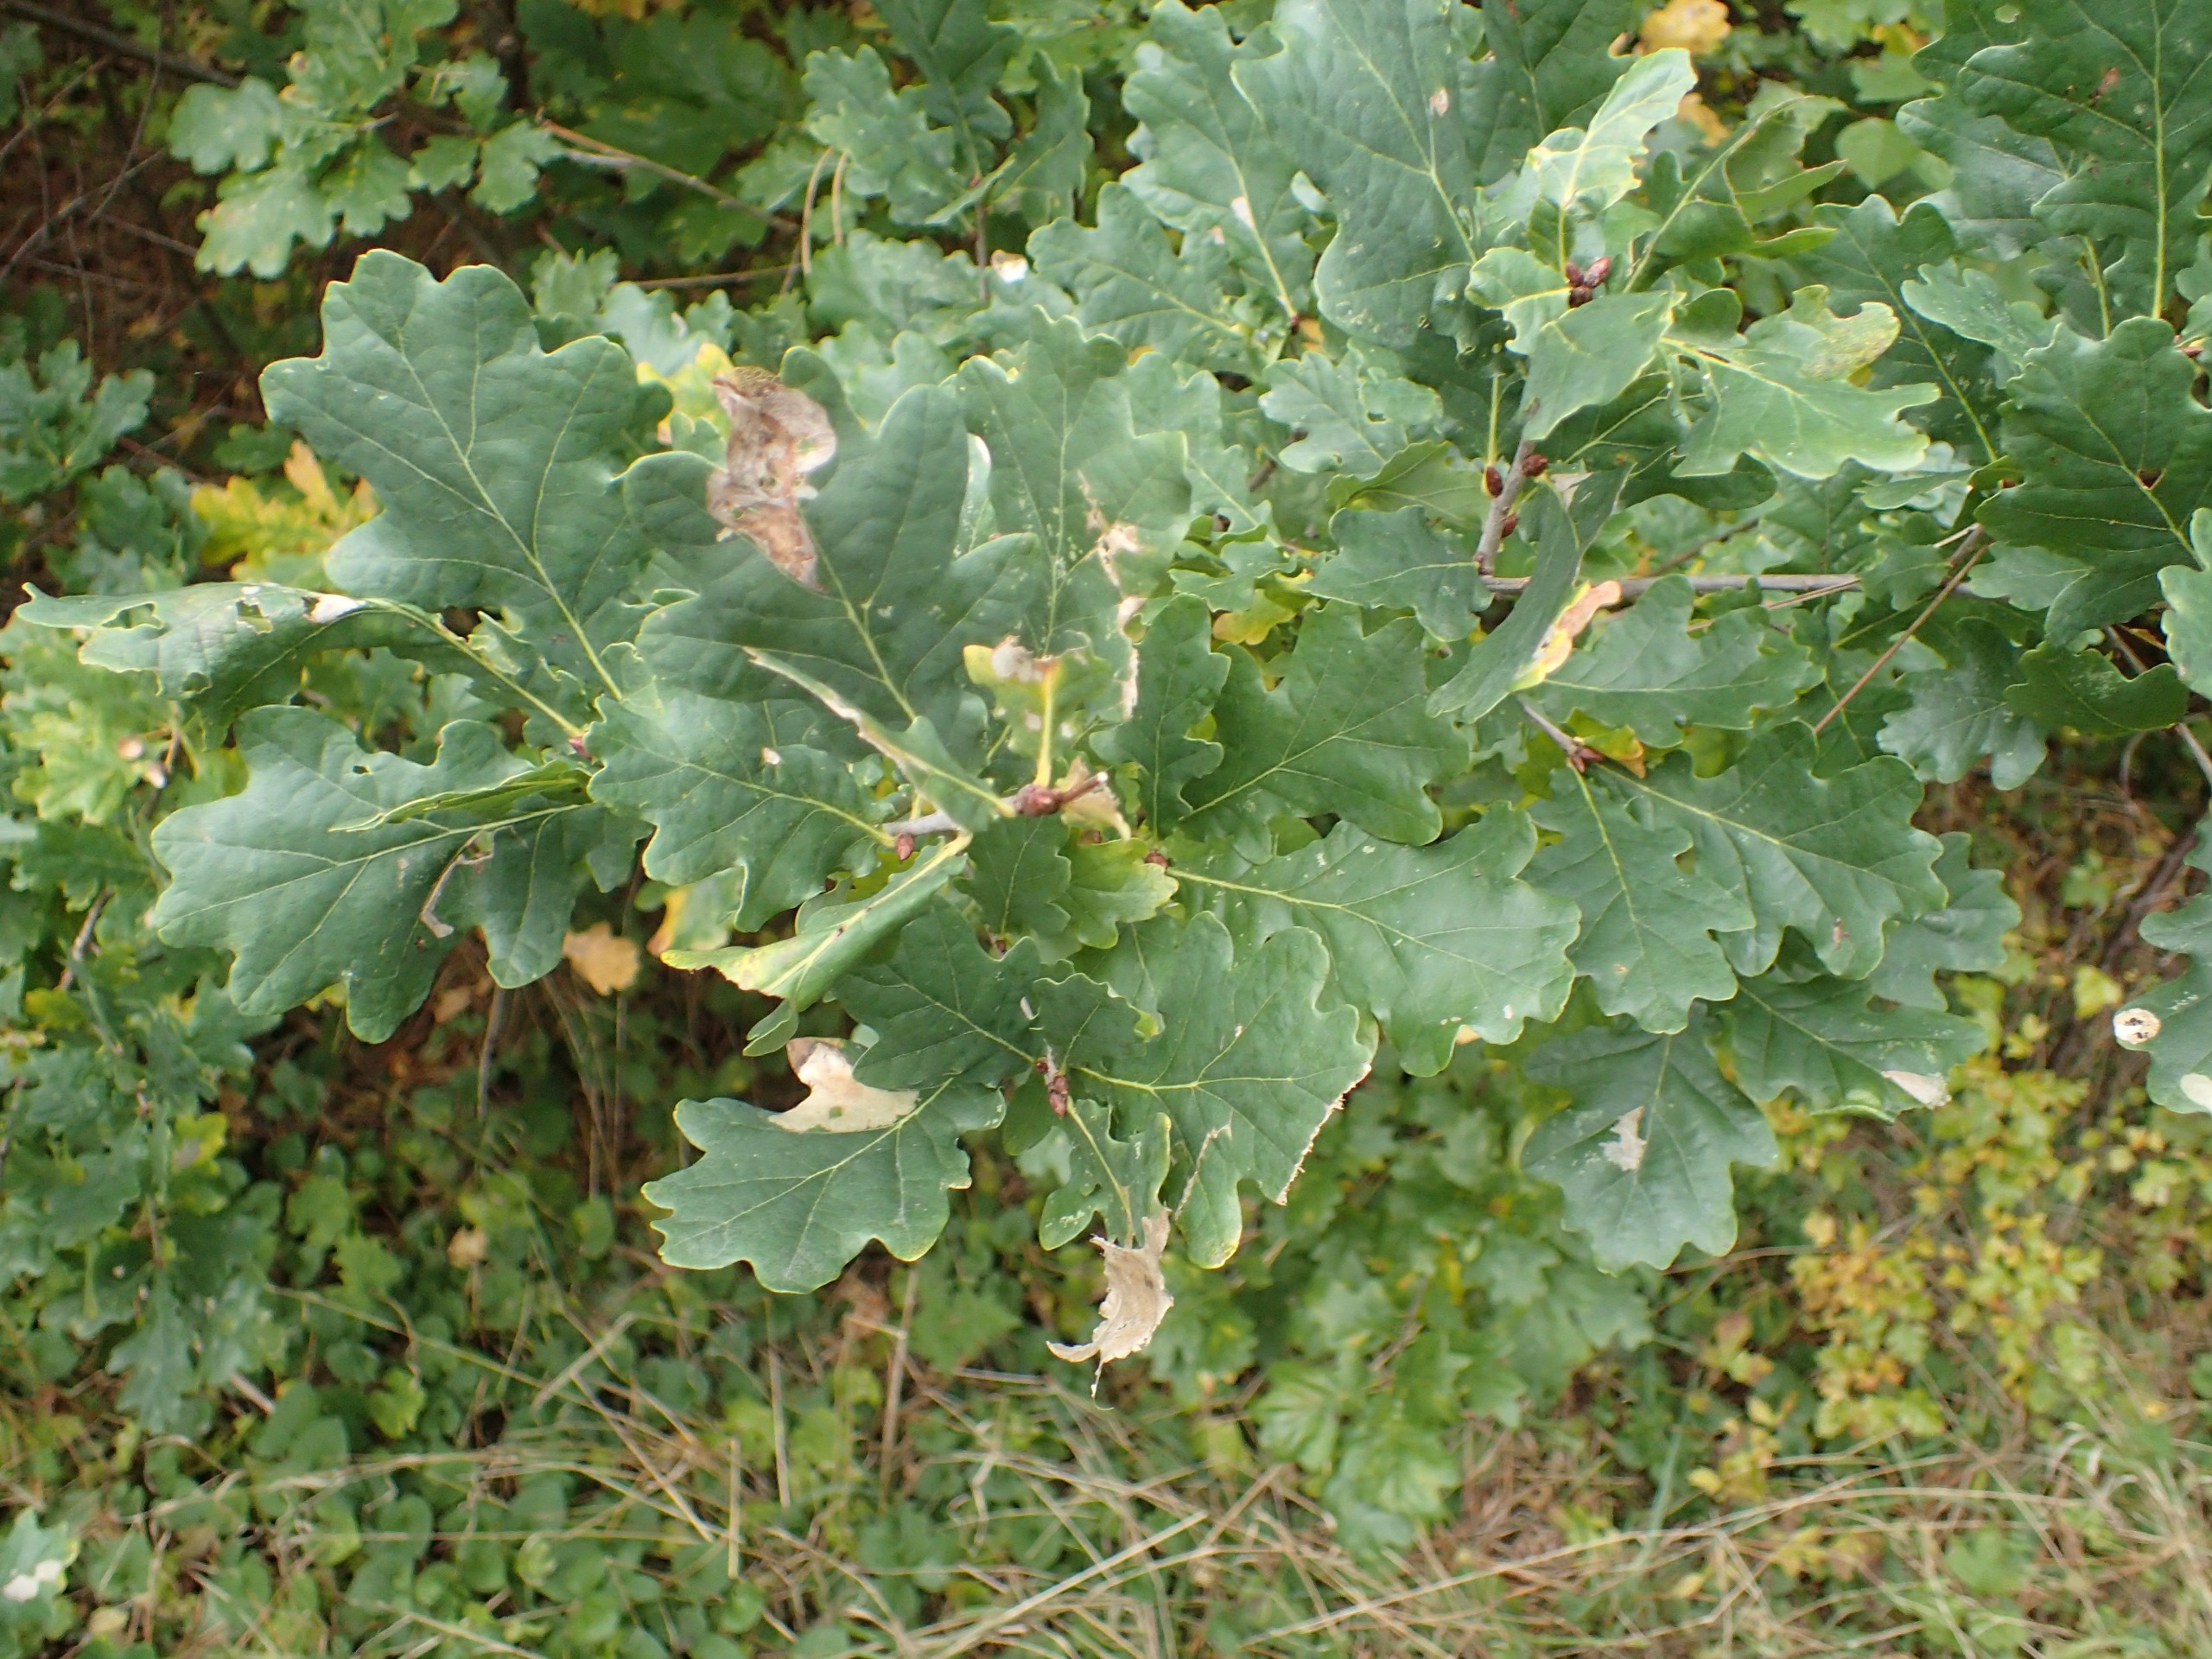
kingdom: Plantae
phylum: Tracheophyta
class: Magnoliopsida
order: Fagales
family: Fagaceae
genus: Quercus
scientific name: Quercus robur
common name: Stilk-eg/almindelig eg
